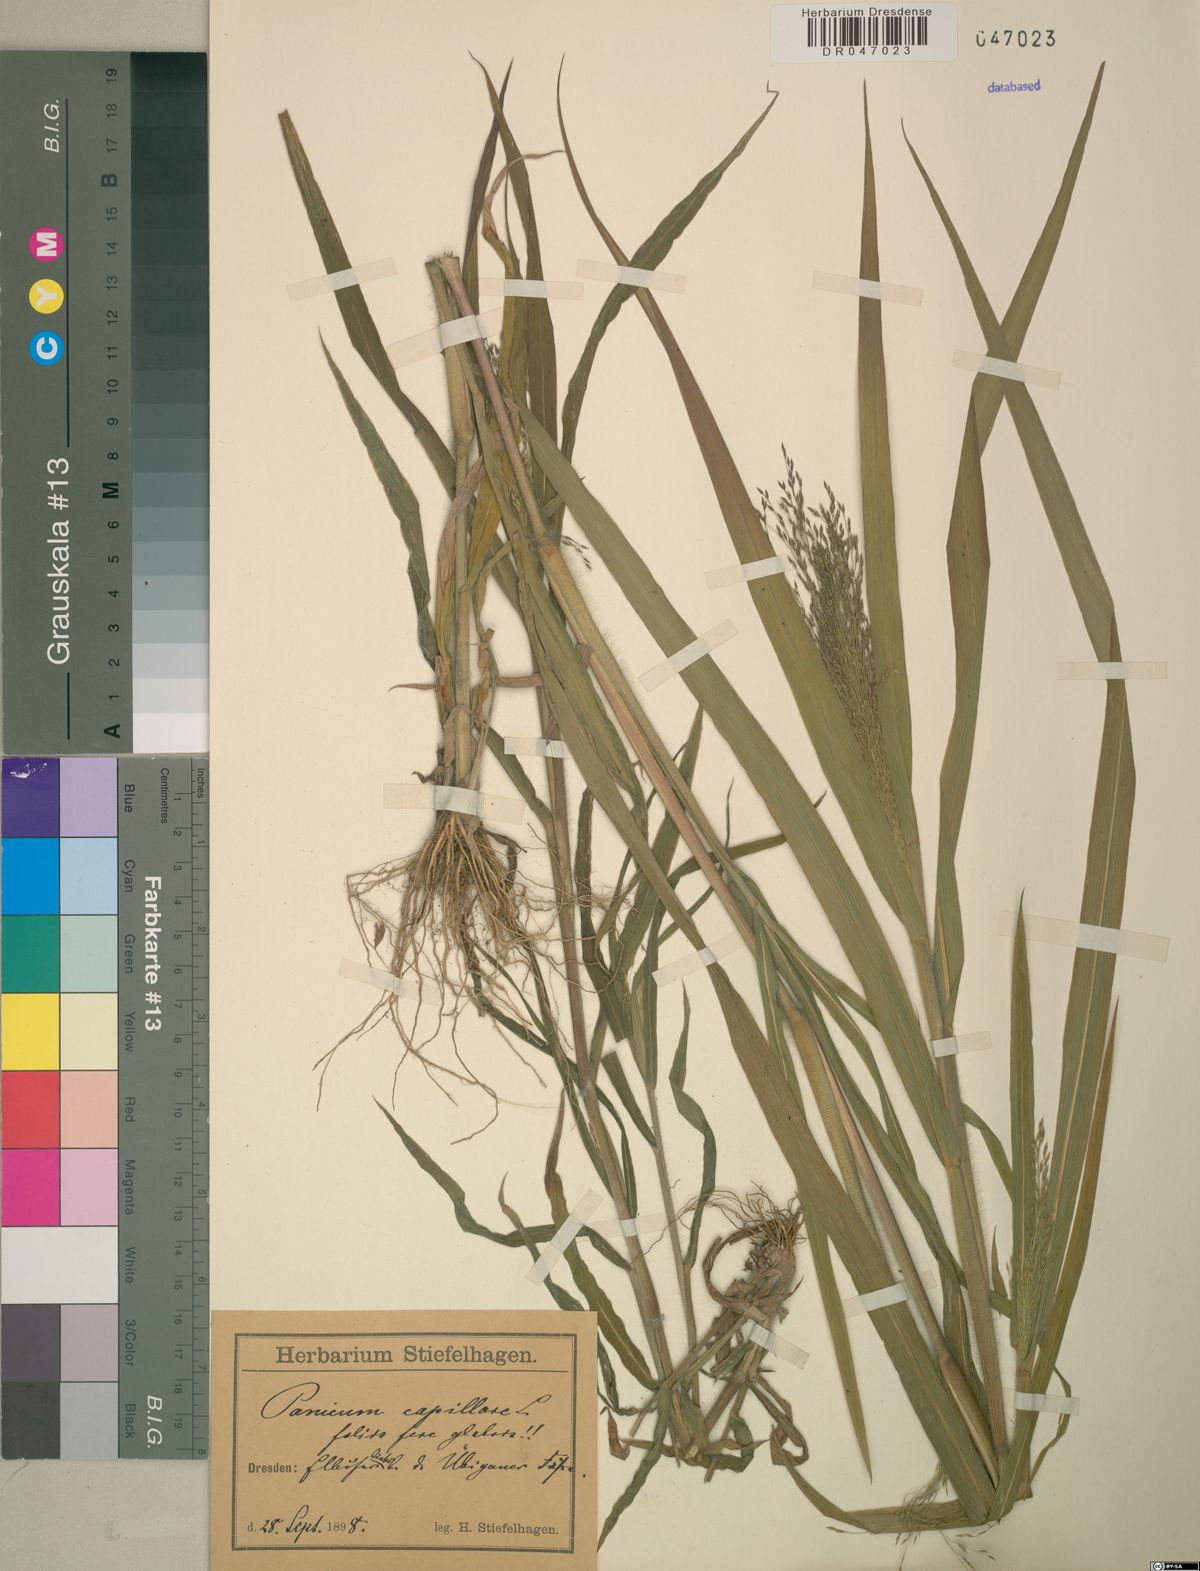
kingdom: Plantae
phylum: Tracheophyta
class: Liliopsida
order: Poales
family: Poaceae
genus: Panicum
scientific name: Panicum capillare
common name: Witch-grass
